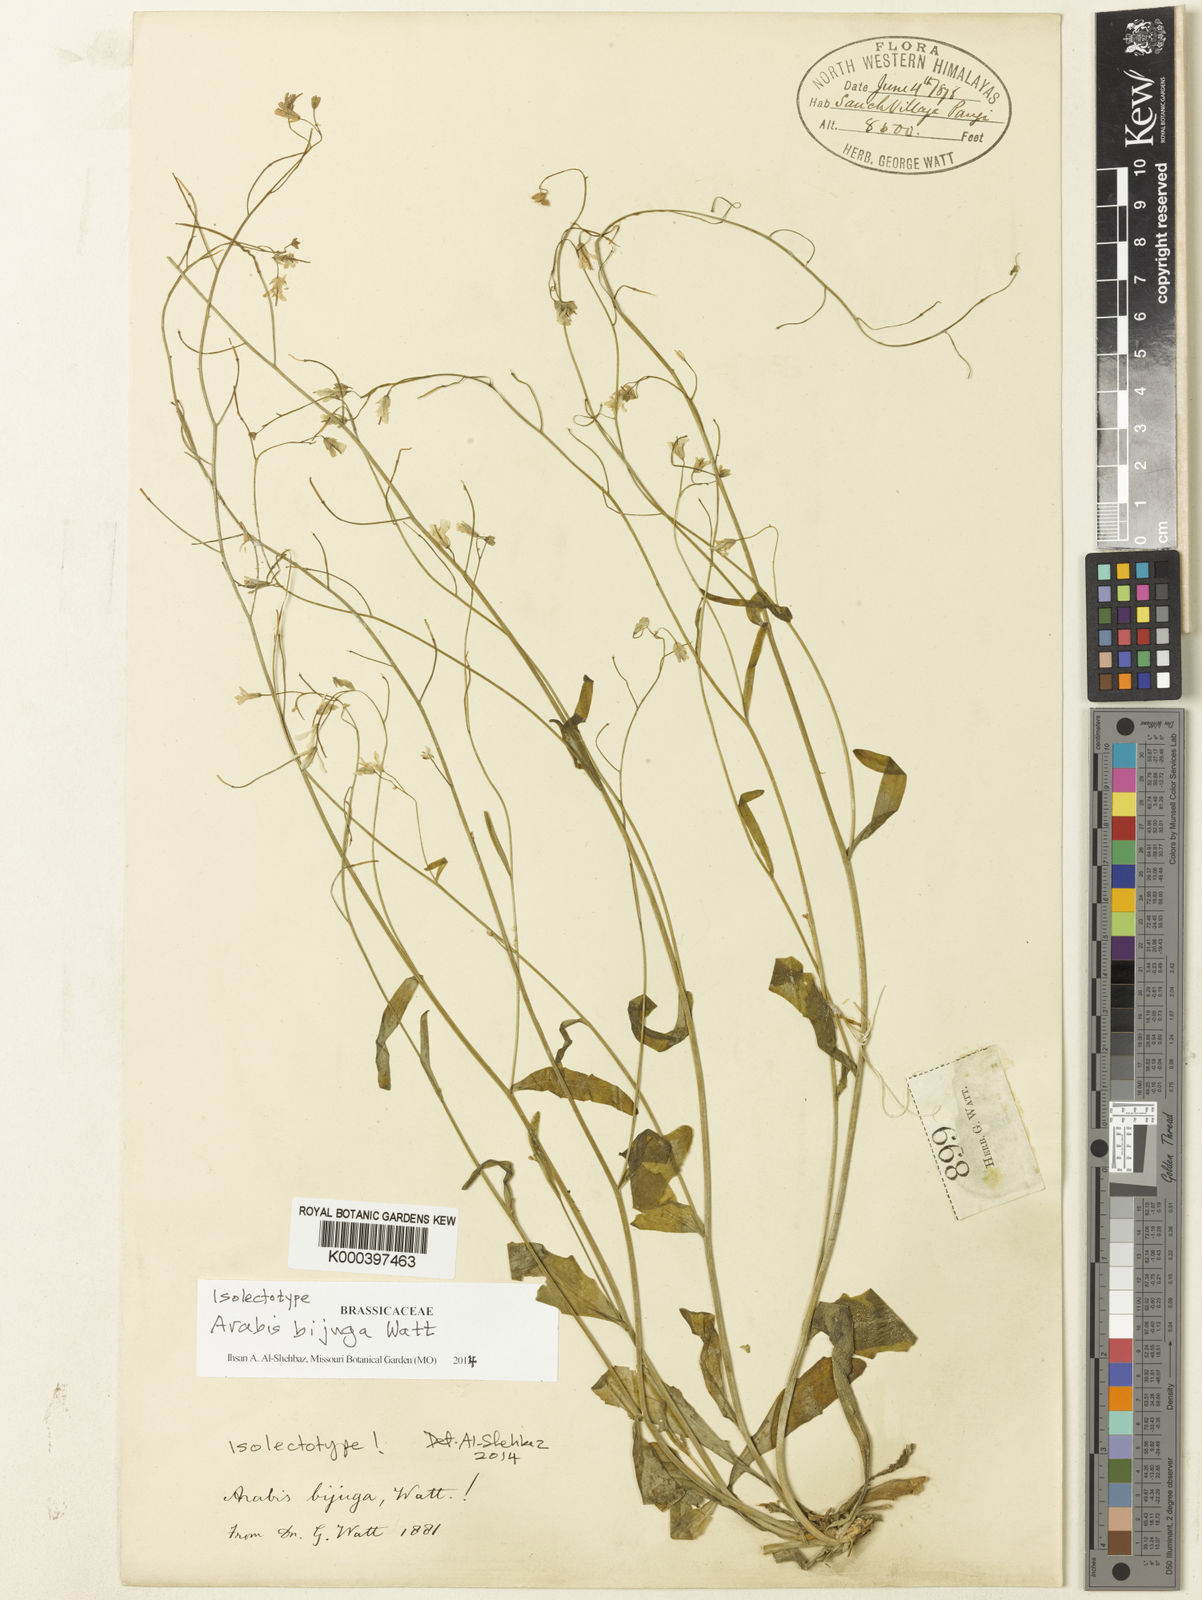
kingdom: Plantae
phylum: Tracheophyta
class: Magnoliopsida
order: Brassicales
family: Brassicaceae
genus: Arabis
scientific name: Arabis bijuga
